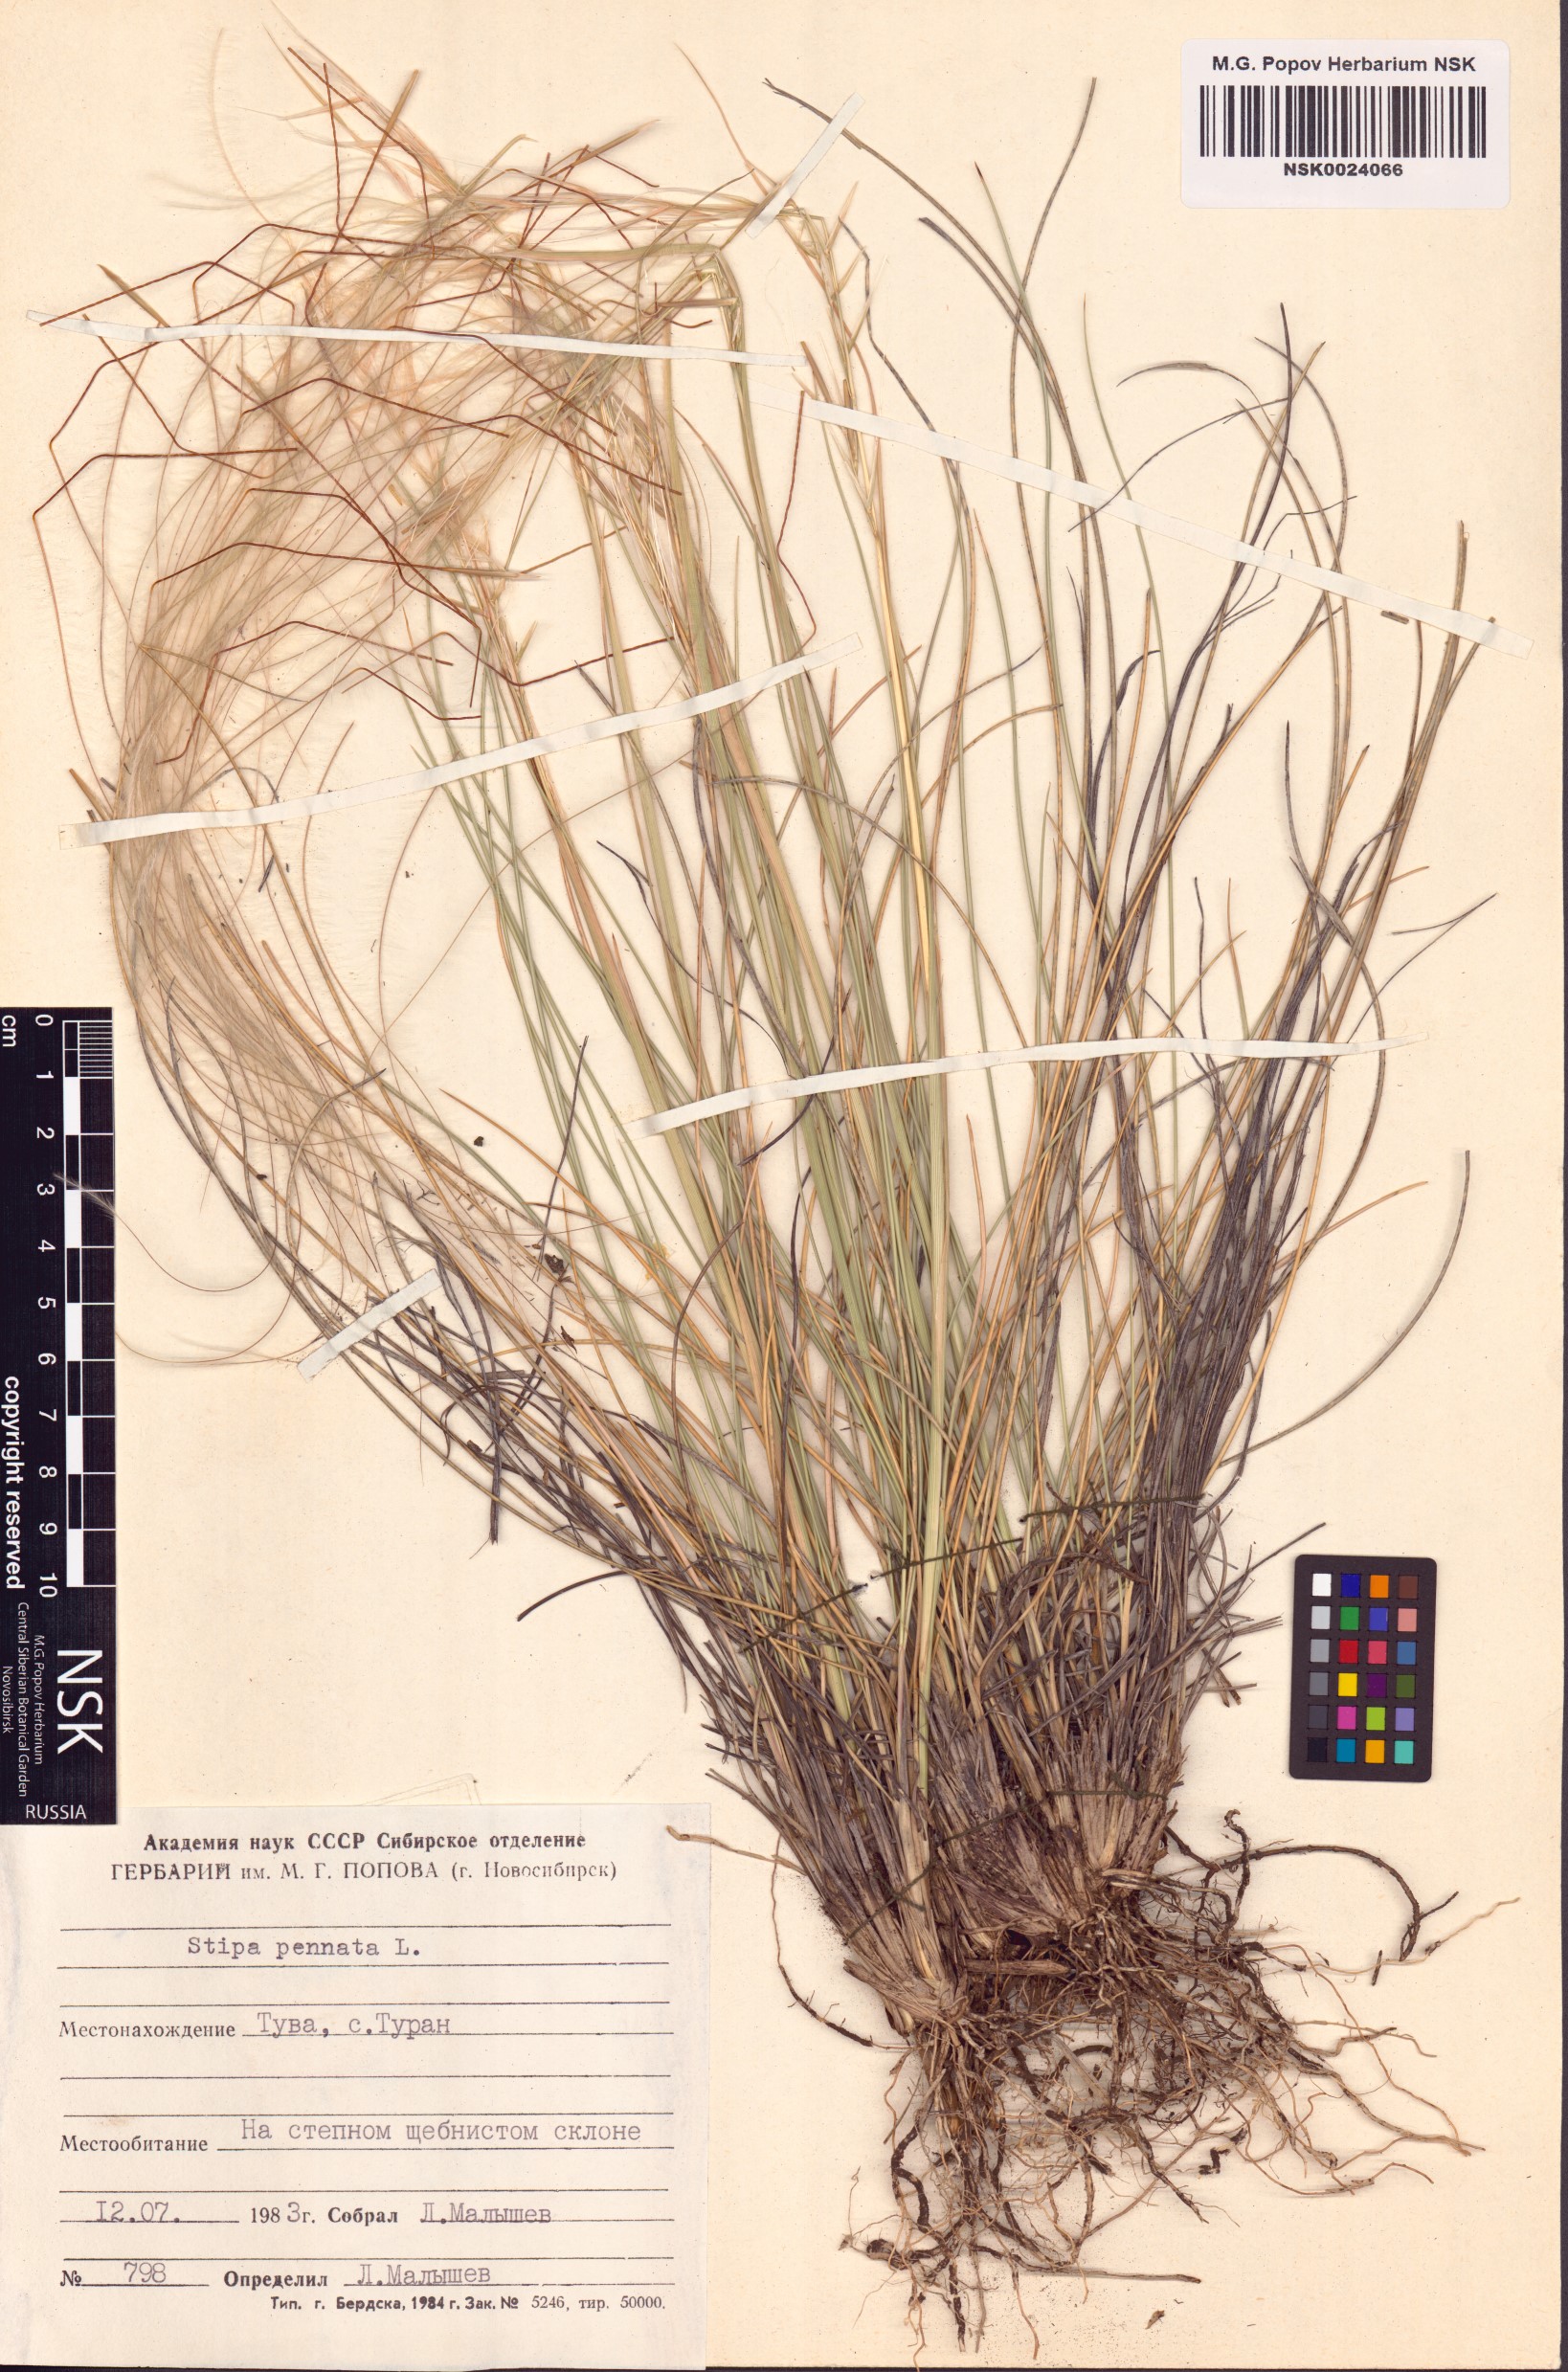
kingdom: Plantae
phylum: Tracheophyta
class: Liliopsida
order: Poales
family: Poaceae
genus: Stipa
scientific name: Stipa pennata
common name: European feather grass
